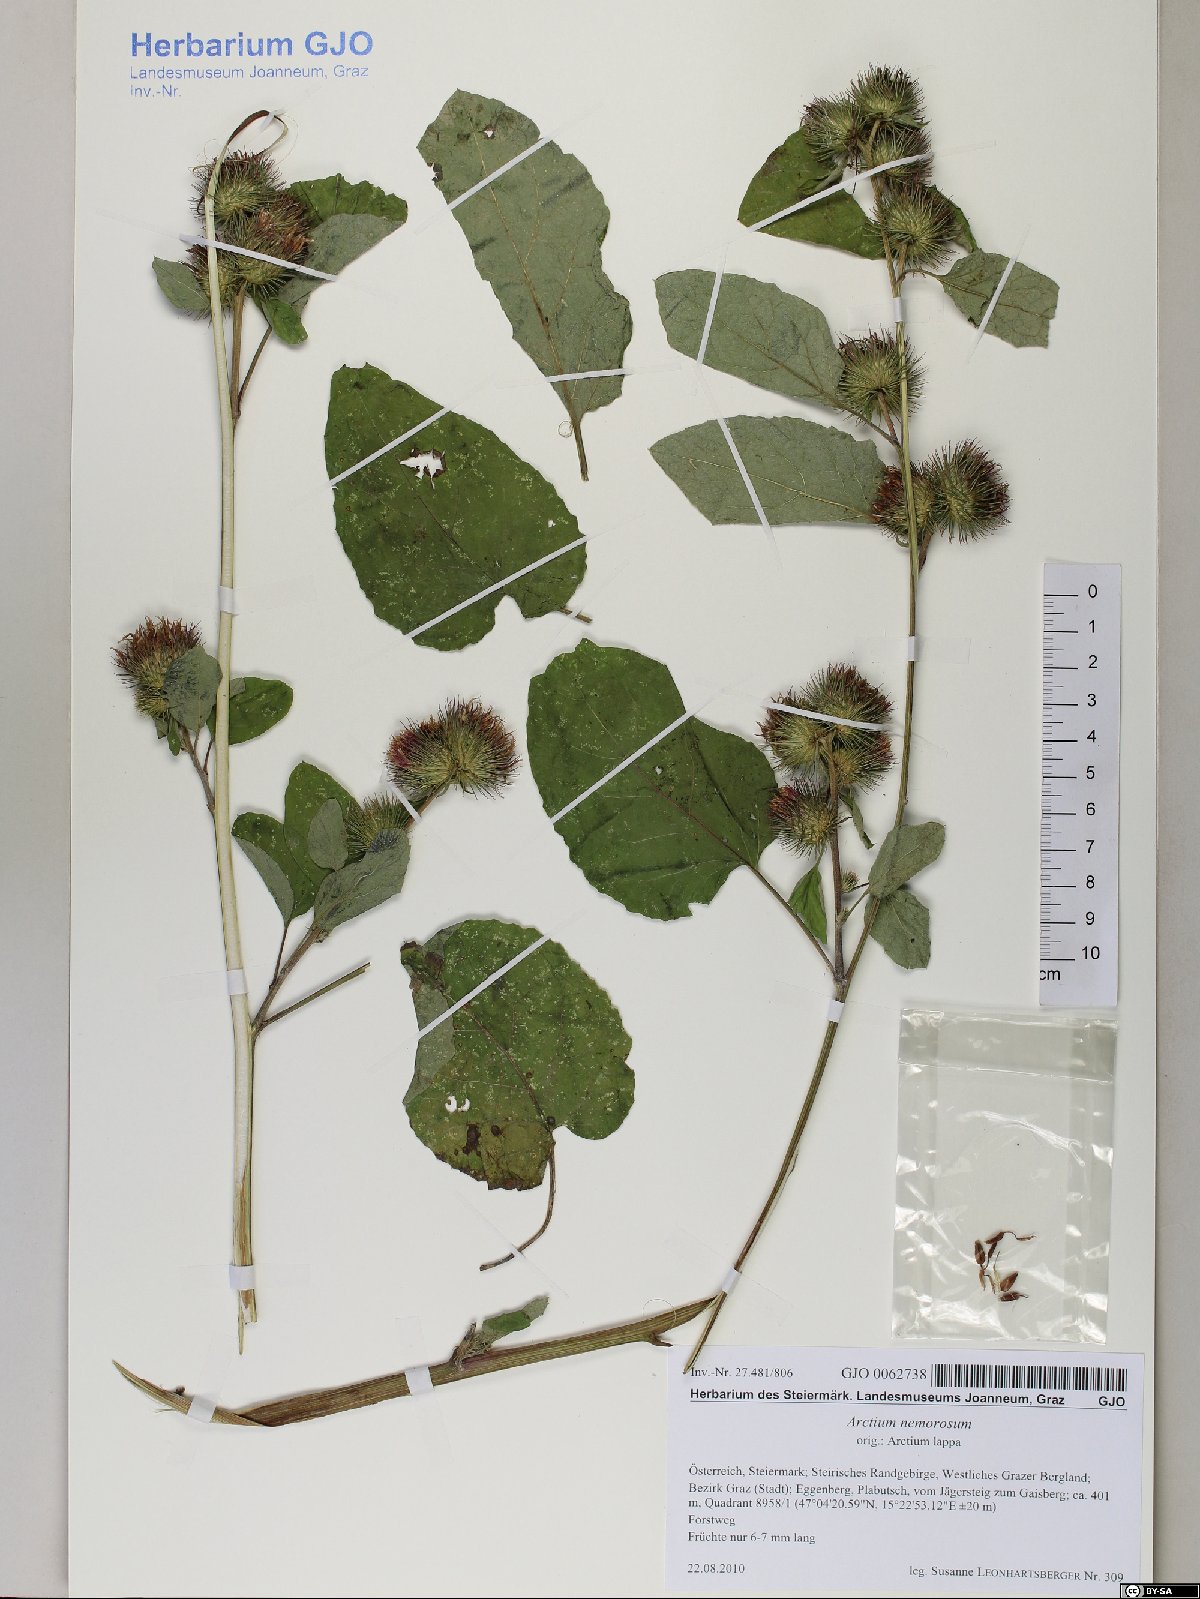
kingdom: Plantae
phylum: Tracheophyta
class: Magnoliopsida
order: Asterales
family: Asteraceae
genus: Arctium
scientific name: Arctium nemorosum
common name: Wood burdock
